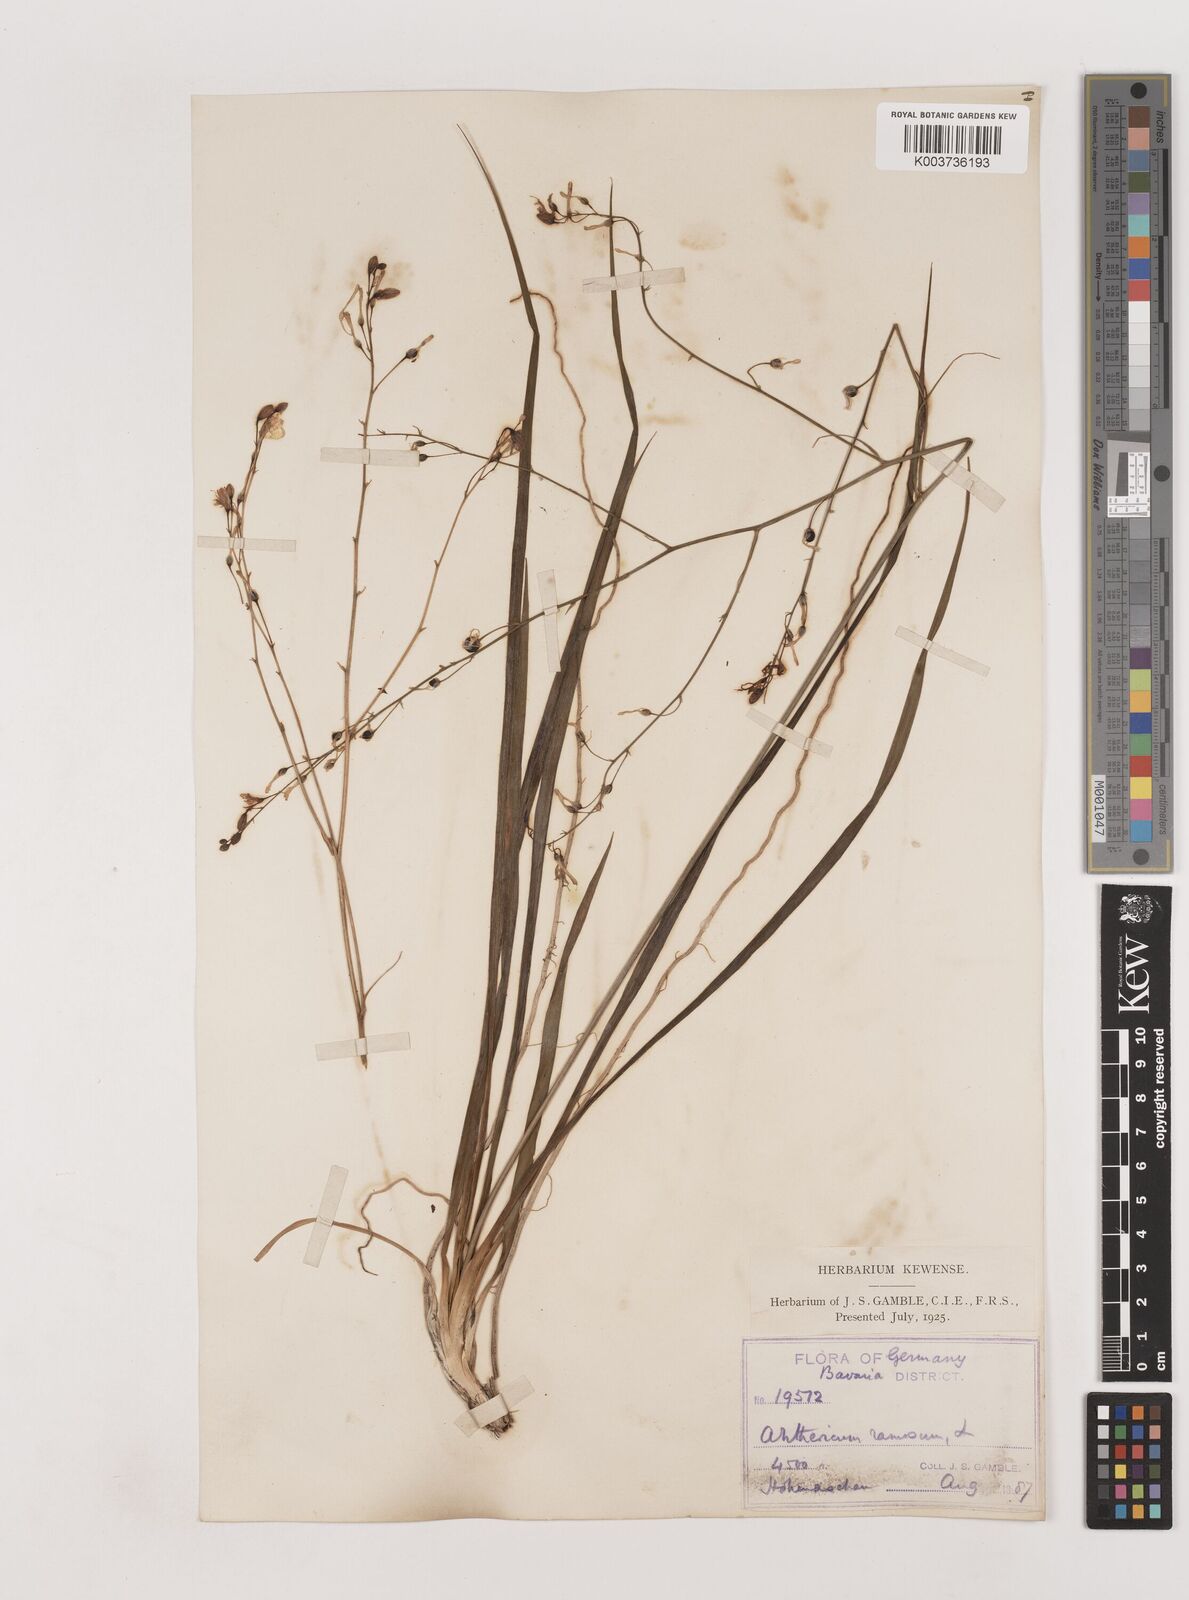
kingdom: Plantae
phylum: Tracheophyta
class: Liliopsida
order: Asparagales
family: Asparagaceae
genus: Anthericum
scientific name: Anthericum ramosum
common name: Branched st. bernard's-lily
